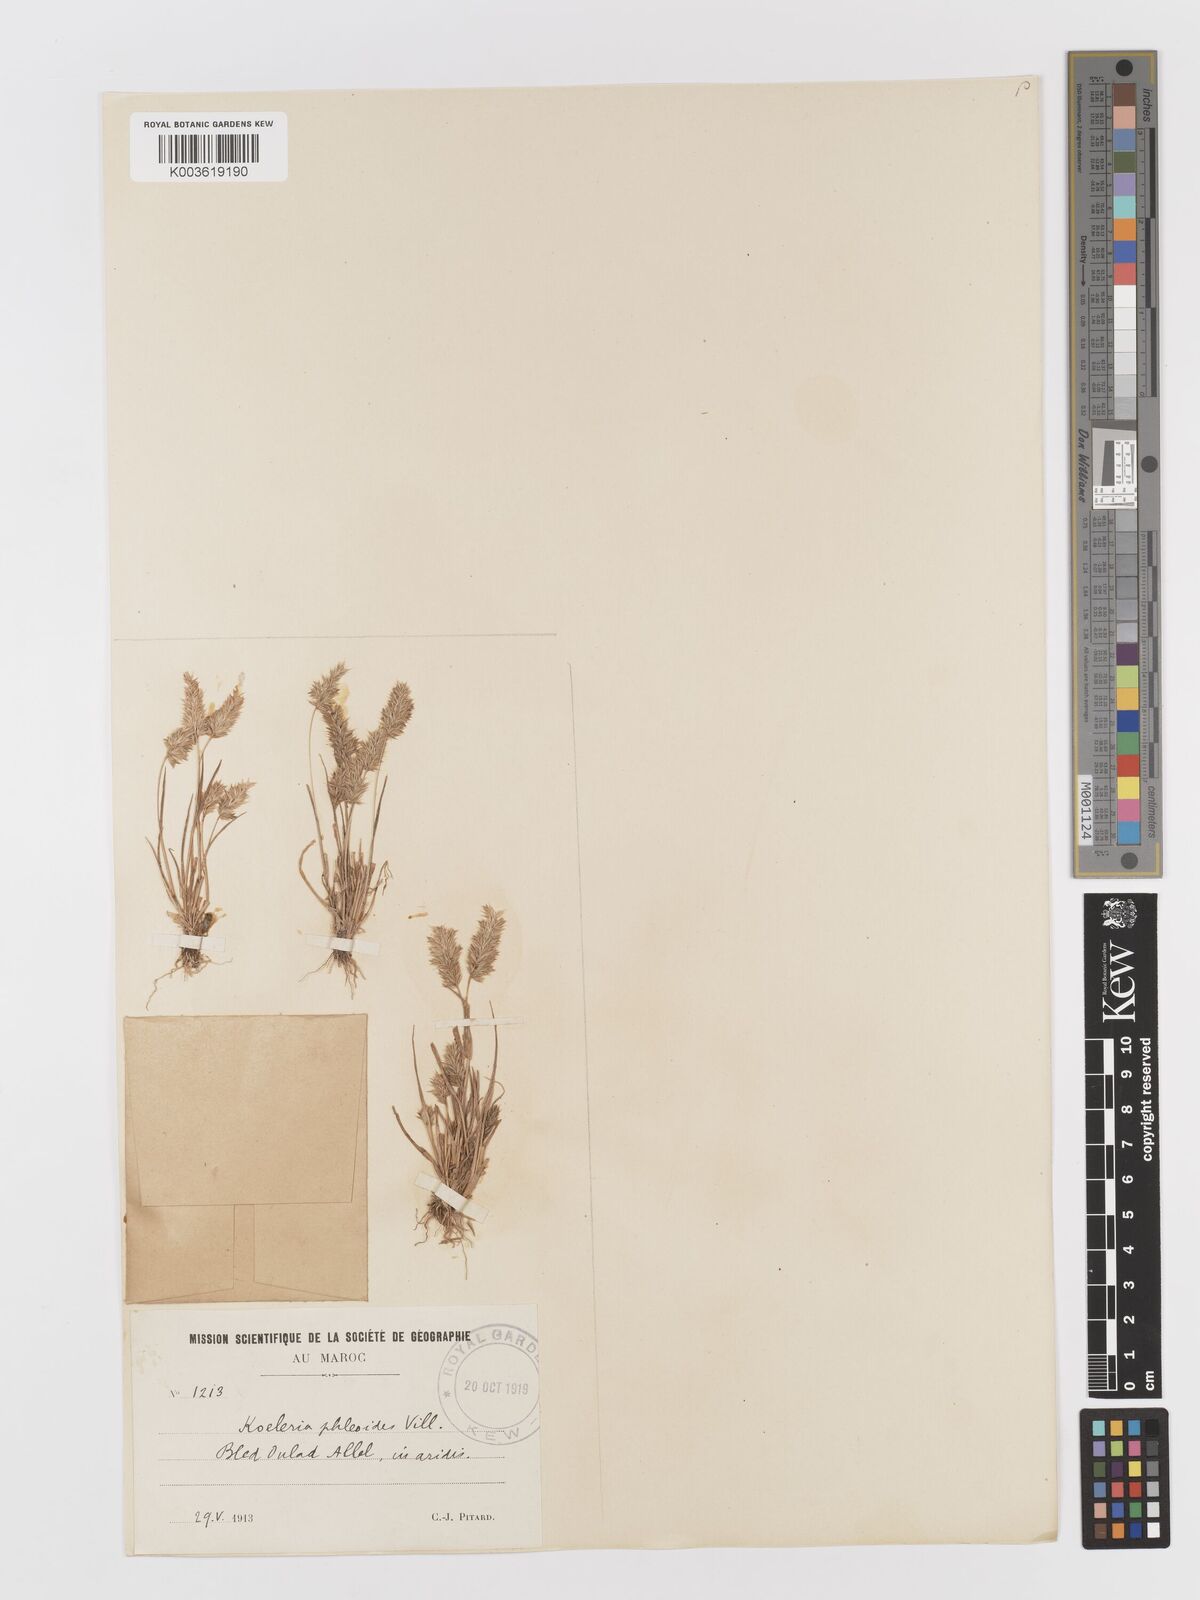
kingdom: Plantae
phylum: Tracheophyta
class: Liliopsida
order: Poales
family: Poaceae
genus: Rostraria
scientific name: Rostraria cristata
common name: Mediterranean hair-grass
